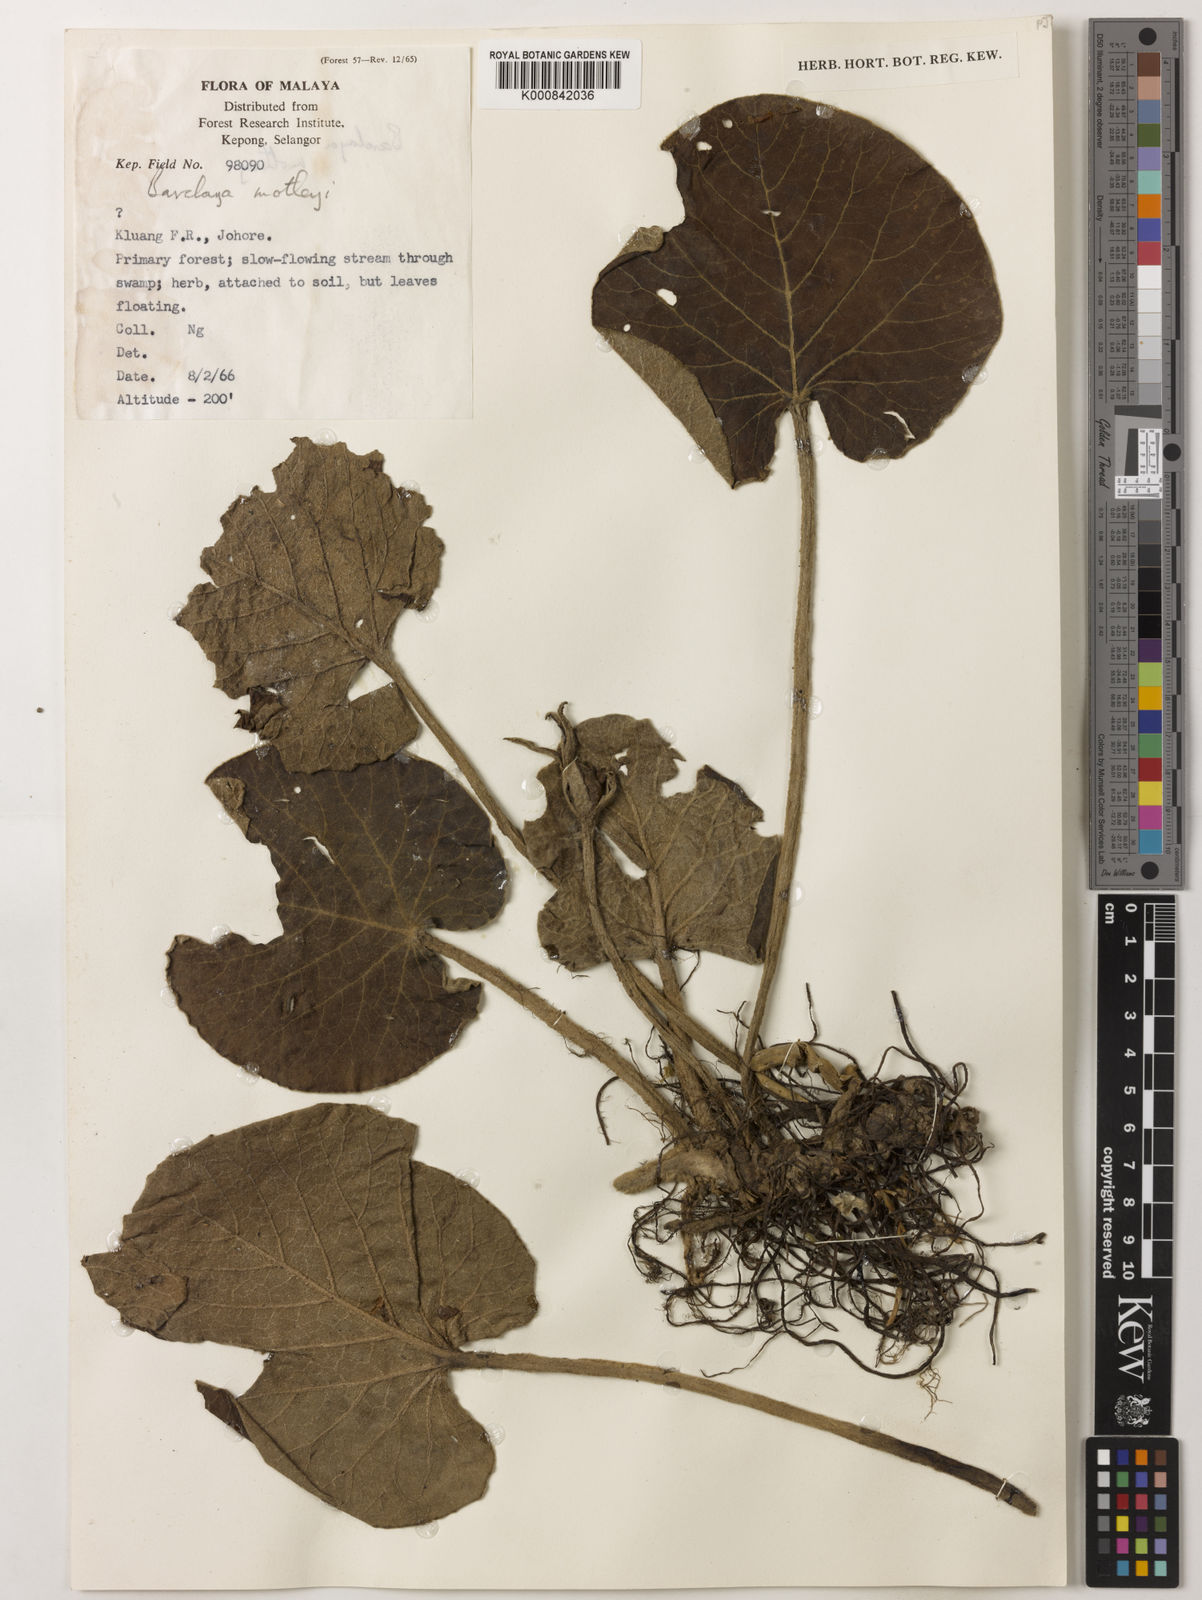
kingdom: Plantae
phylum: Tracheophyta
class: Magnoliopsida
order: Nymphaeales
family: Nymphaeaceae
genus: Barclaya
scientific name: Barclaya motleyi
